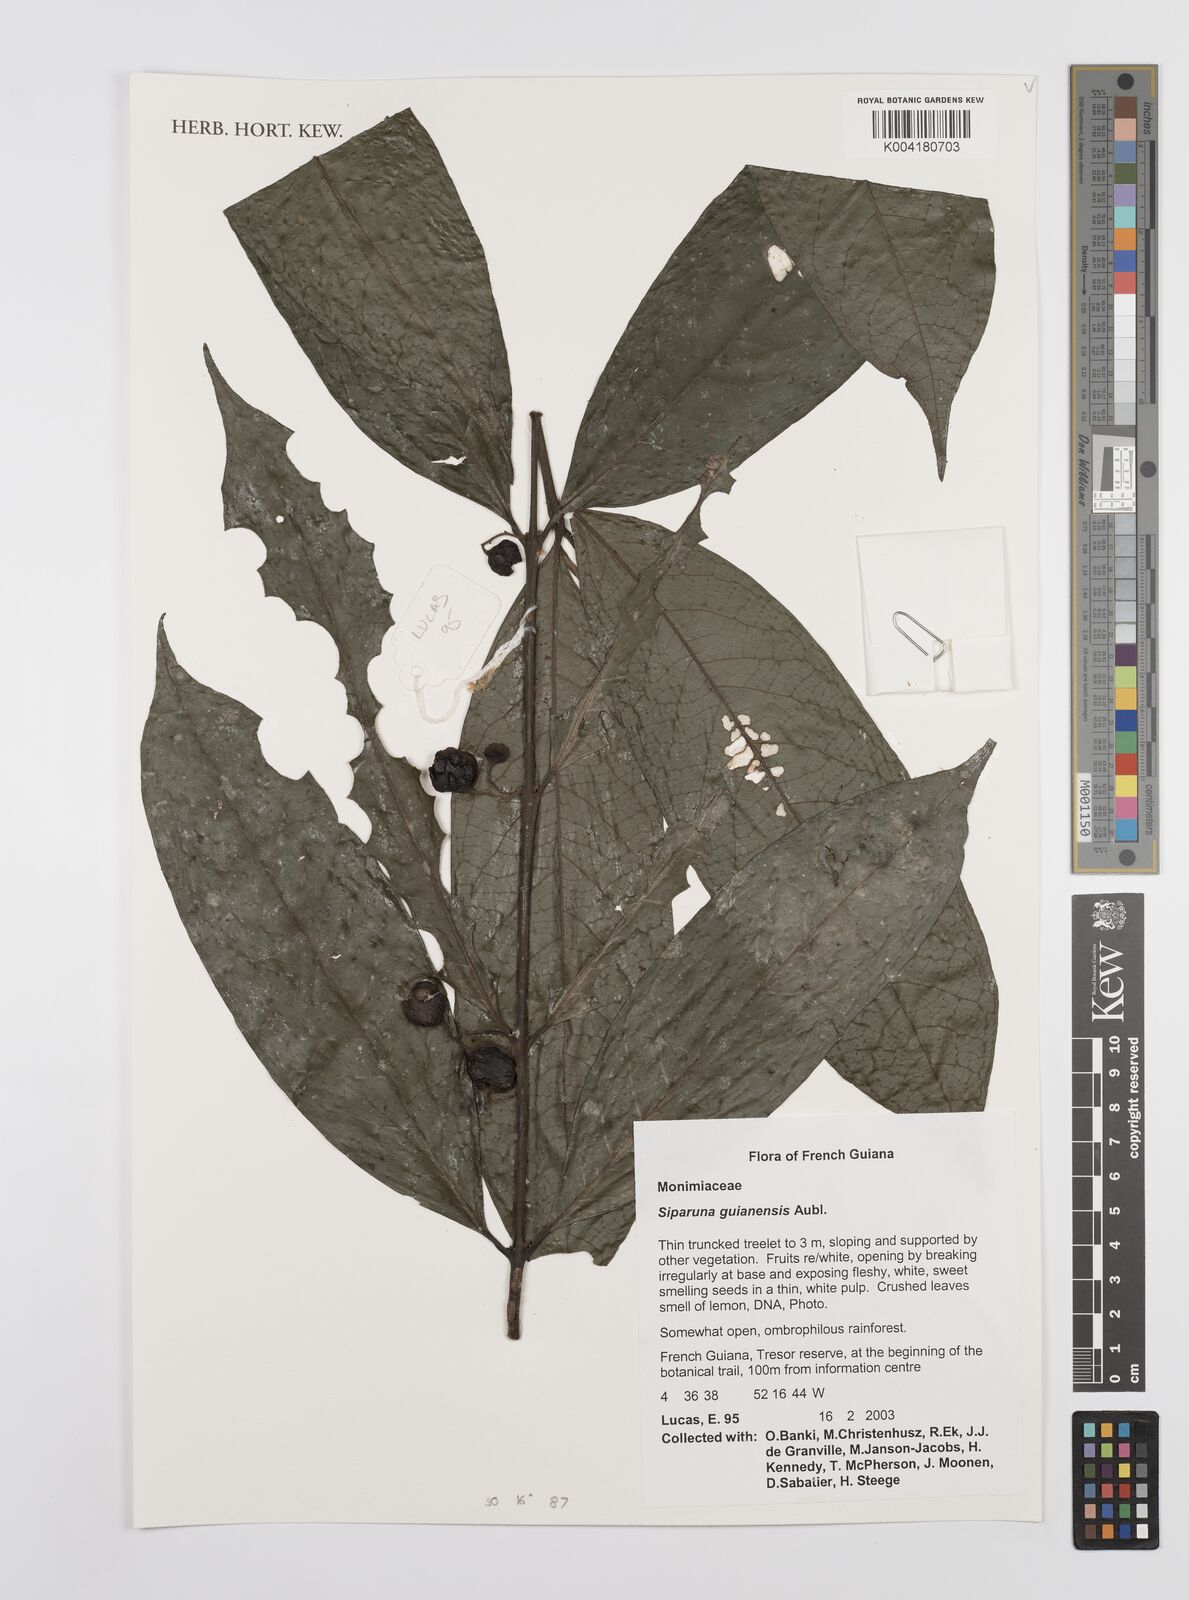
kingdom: Plantae
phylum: Tracheophyta
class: Magnoliopsida
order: Laurales
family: Siparunaceae
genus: Siparuna
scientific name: Siparuna guianensis
